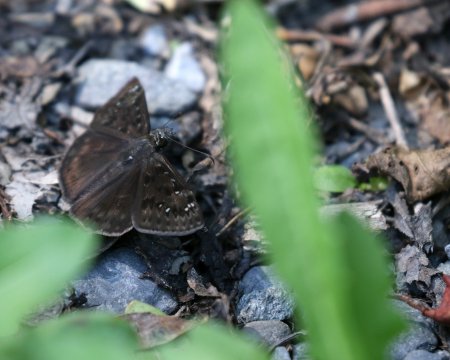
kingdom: Animalia
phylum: Arthropoda
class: Insecta
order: Lepidoptera
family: Hesperiidae
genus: Gesta
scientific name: Gesta
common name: Horace's Duskywing
